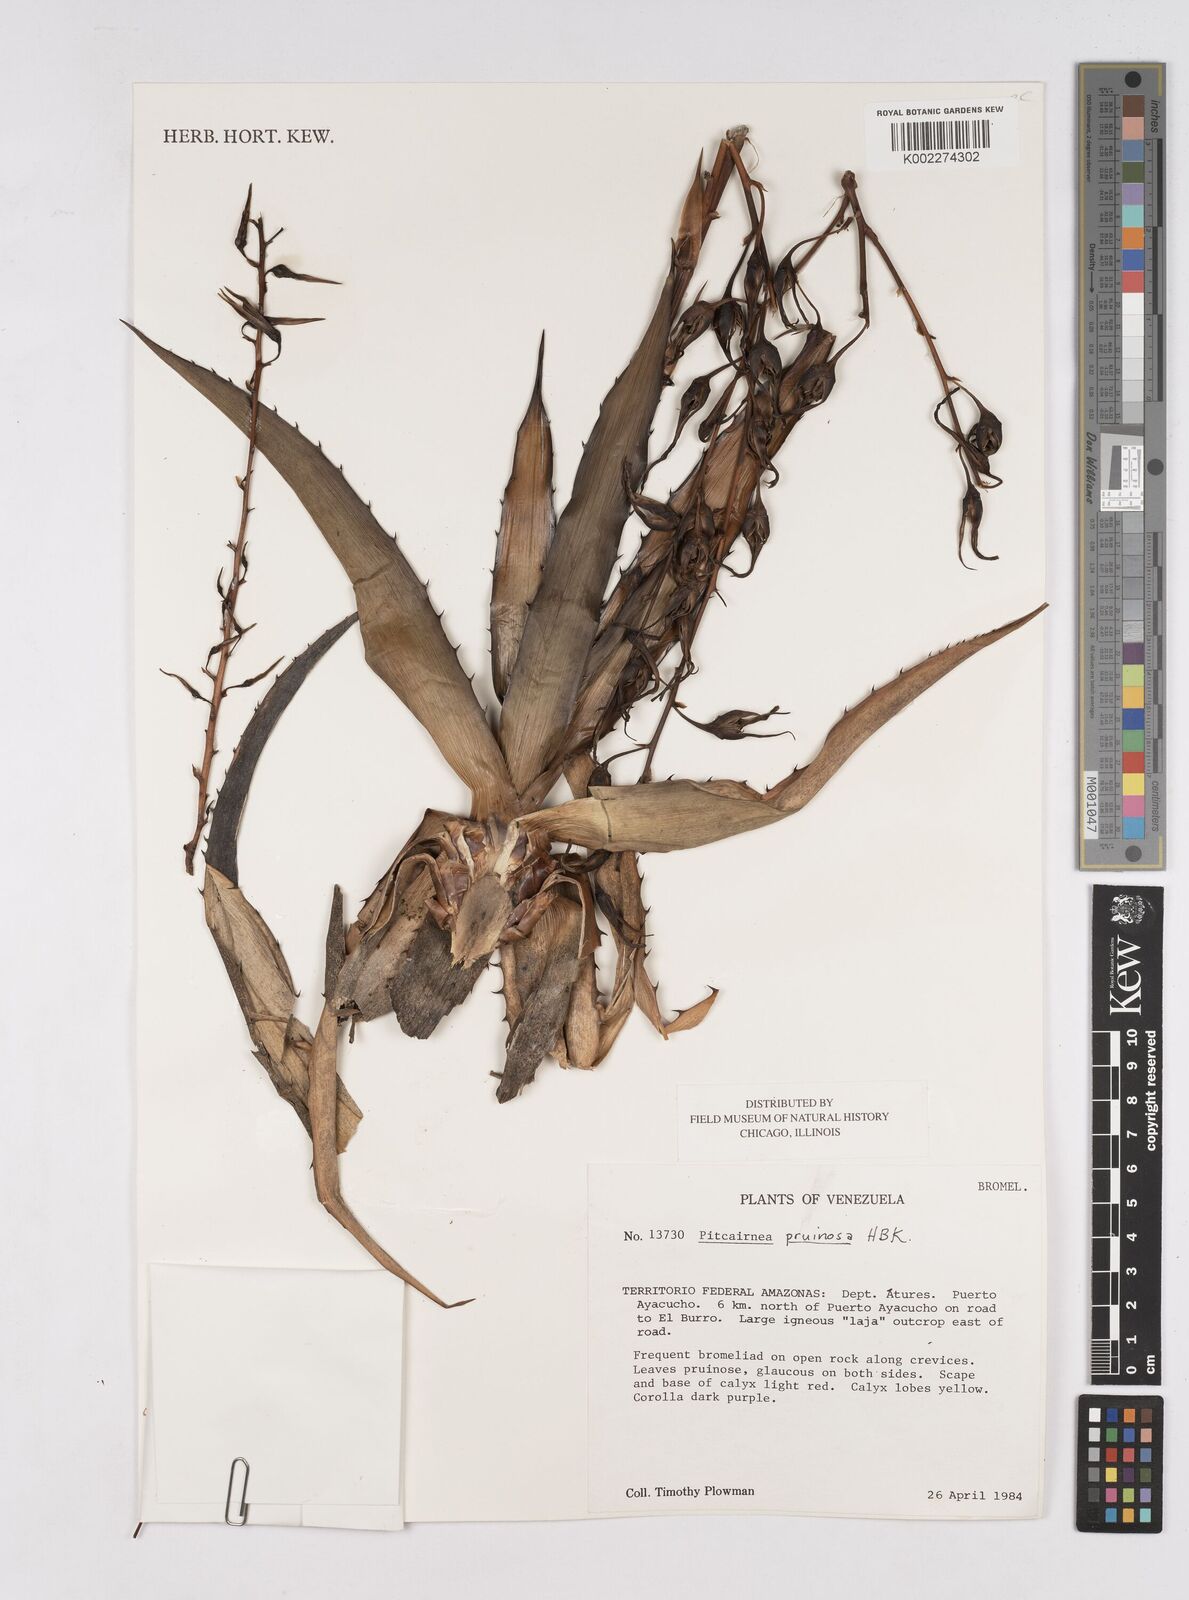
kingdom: Plantae
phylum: Tracheophyta
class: Liliopsida
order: Poales
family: Bromeliaceae
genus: Pitcairnia
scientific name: Pitcairnia pruinosa
